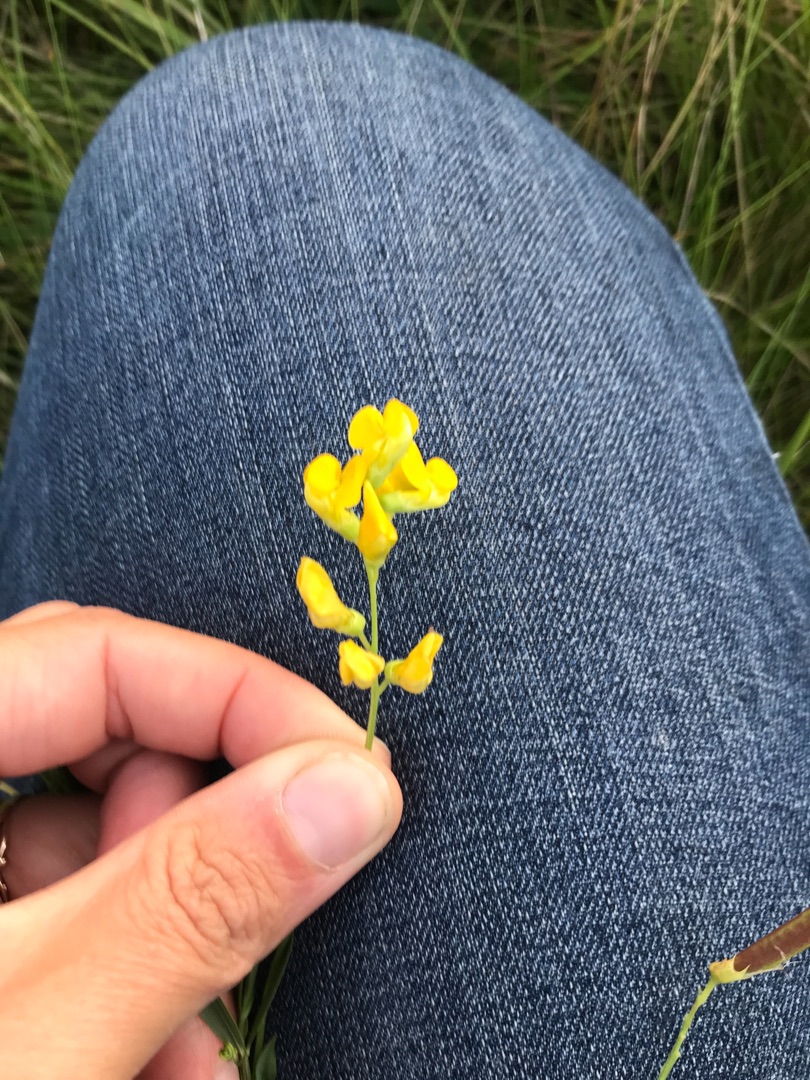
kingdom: Plantae
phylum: Tracheophyta
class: Magnoliopsida
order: Fabales
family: Fabaceae
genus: Lathyrus
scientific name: Lathyrus pratensis
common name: Gul fladbælg
